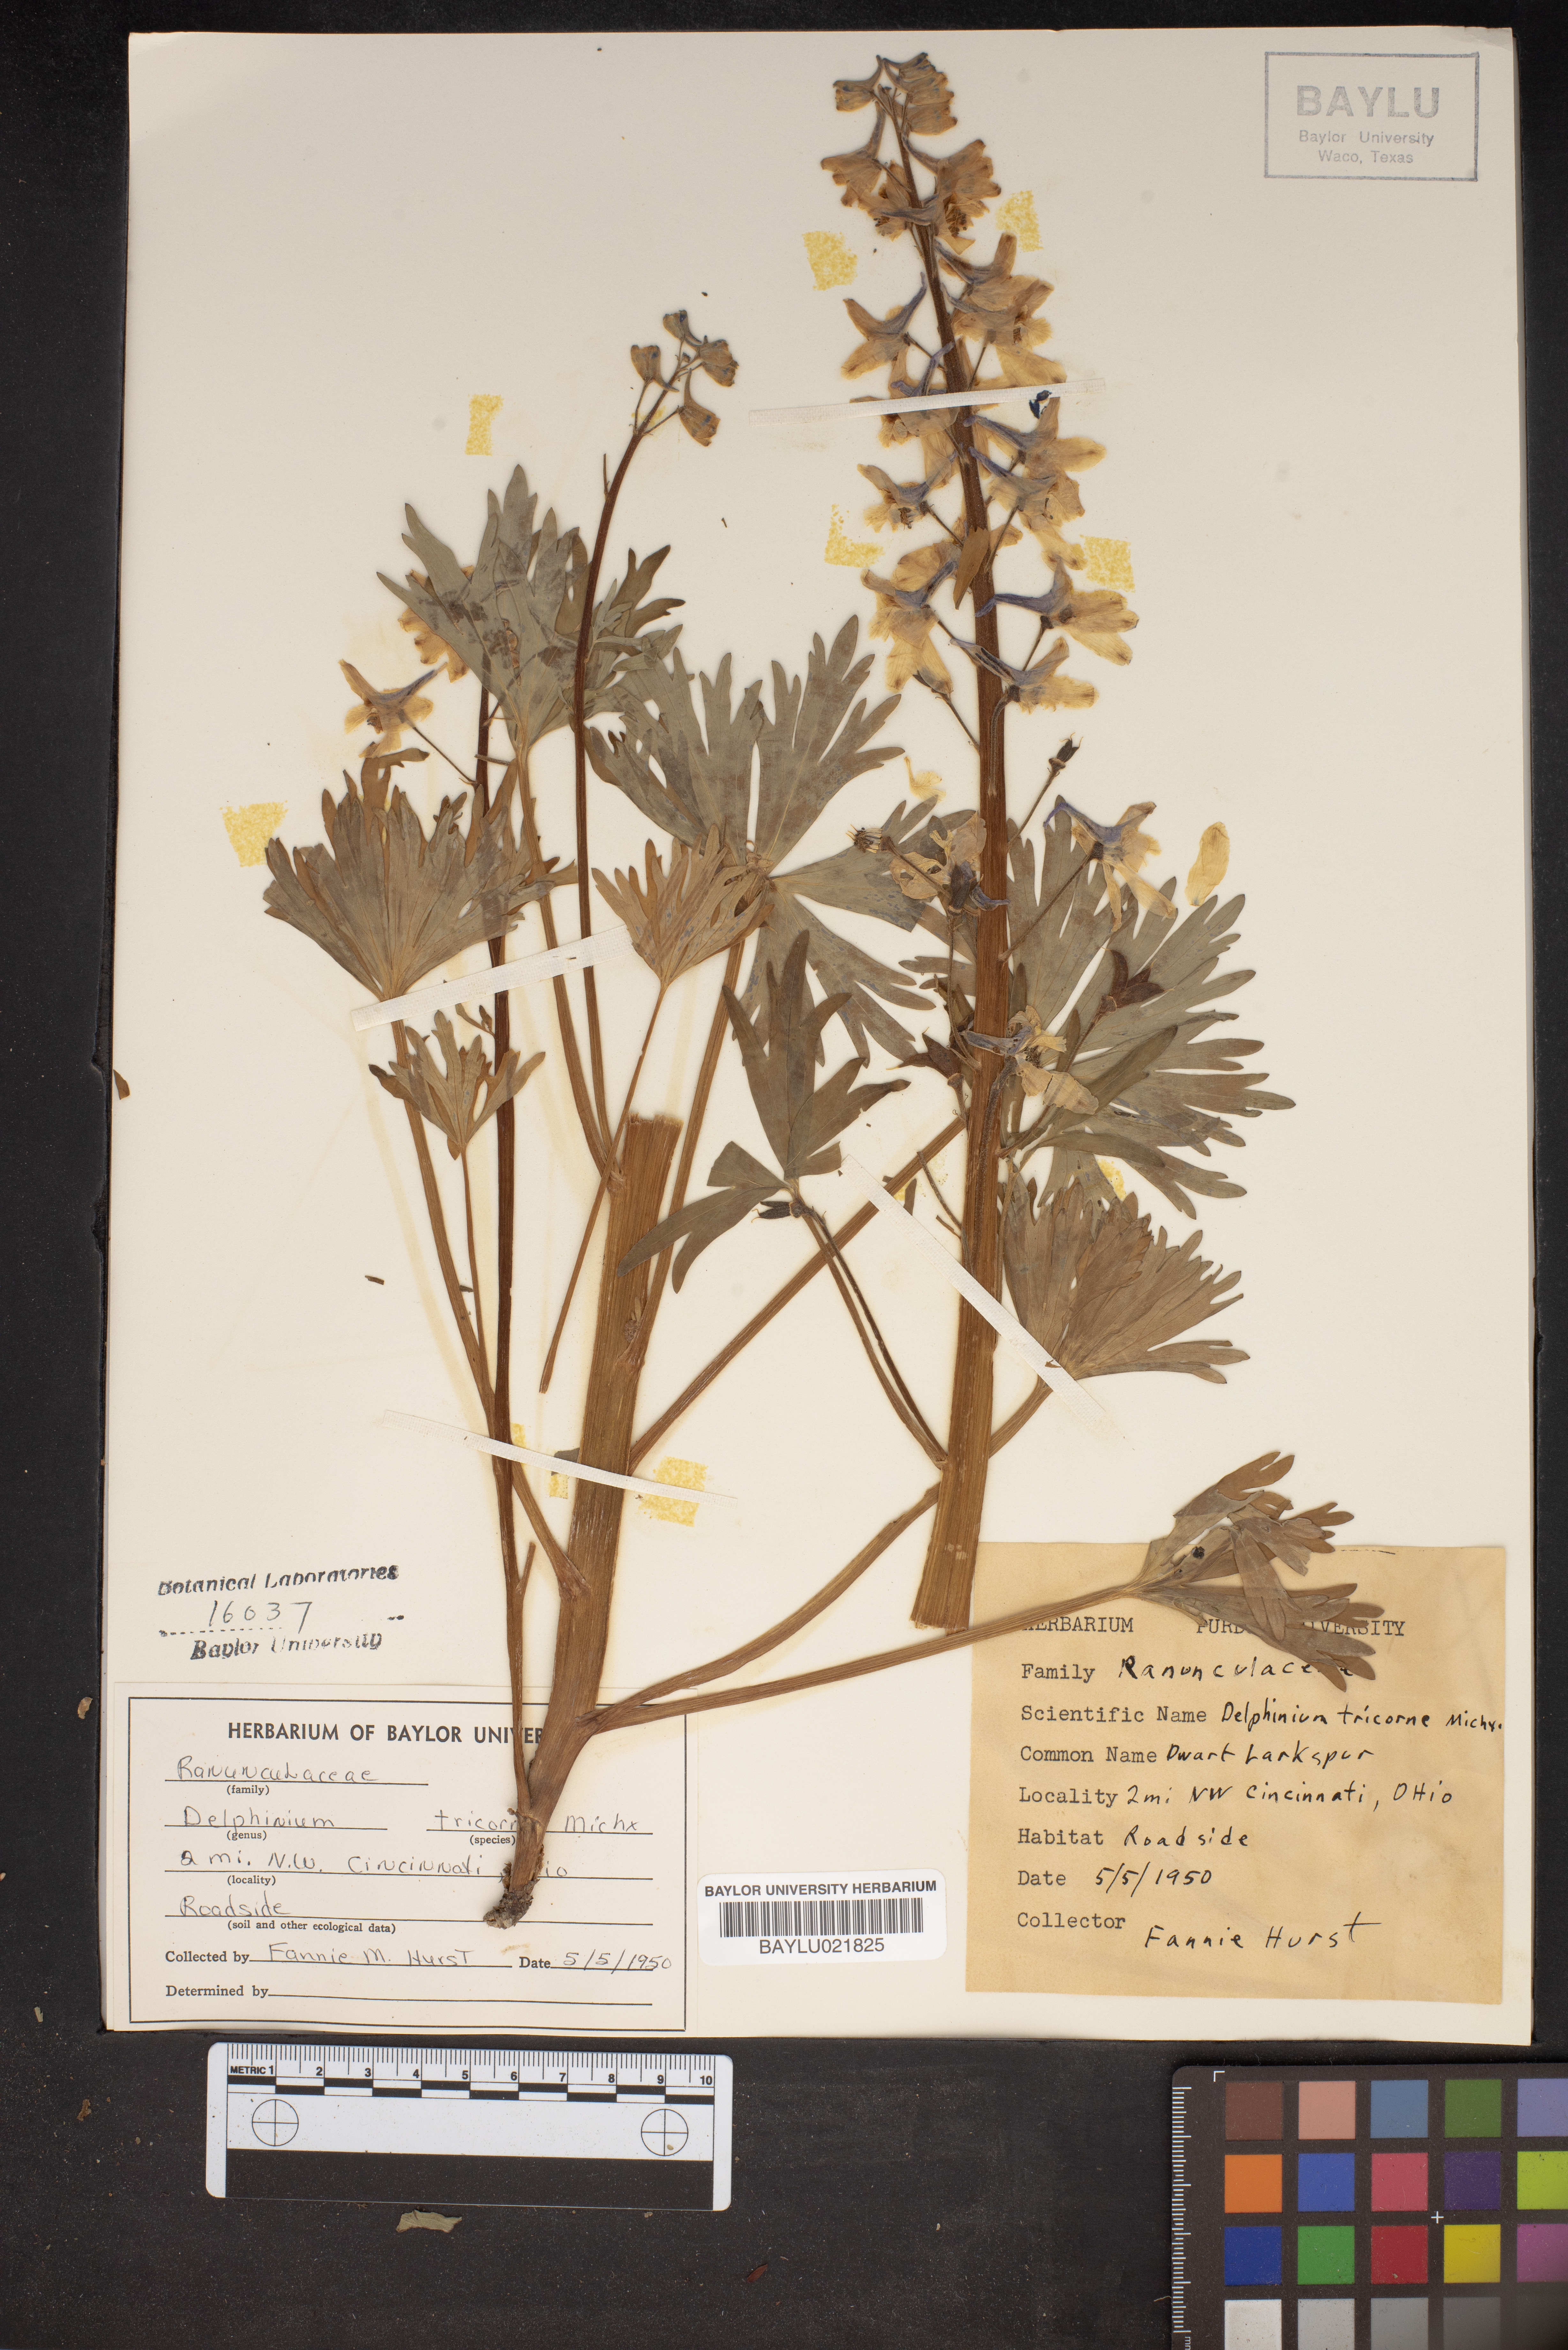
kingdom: Plantae
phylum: Tracheophyta
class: Magnoliopsida
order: Ranunculales
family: Ranunculaceae
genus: Delphinium
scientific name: Delphinium tricorne
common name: Dwarf larkspur
